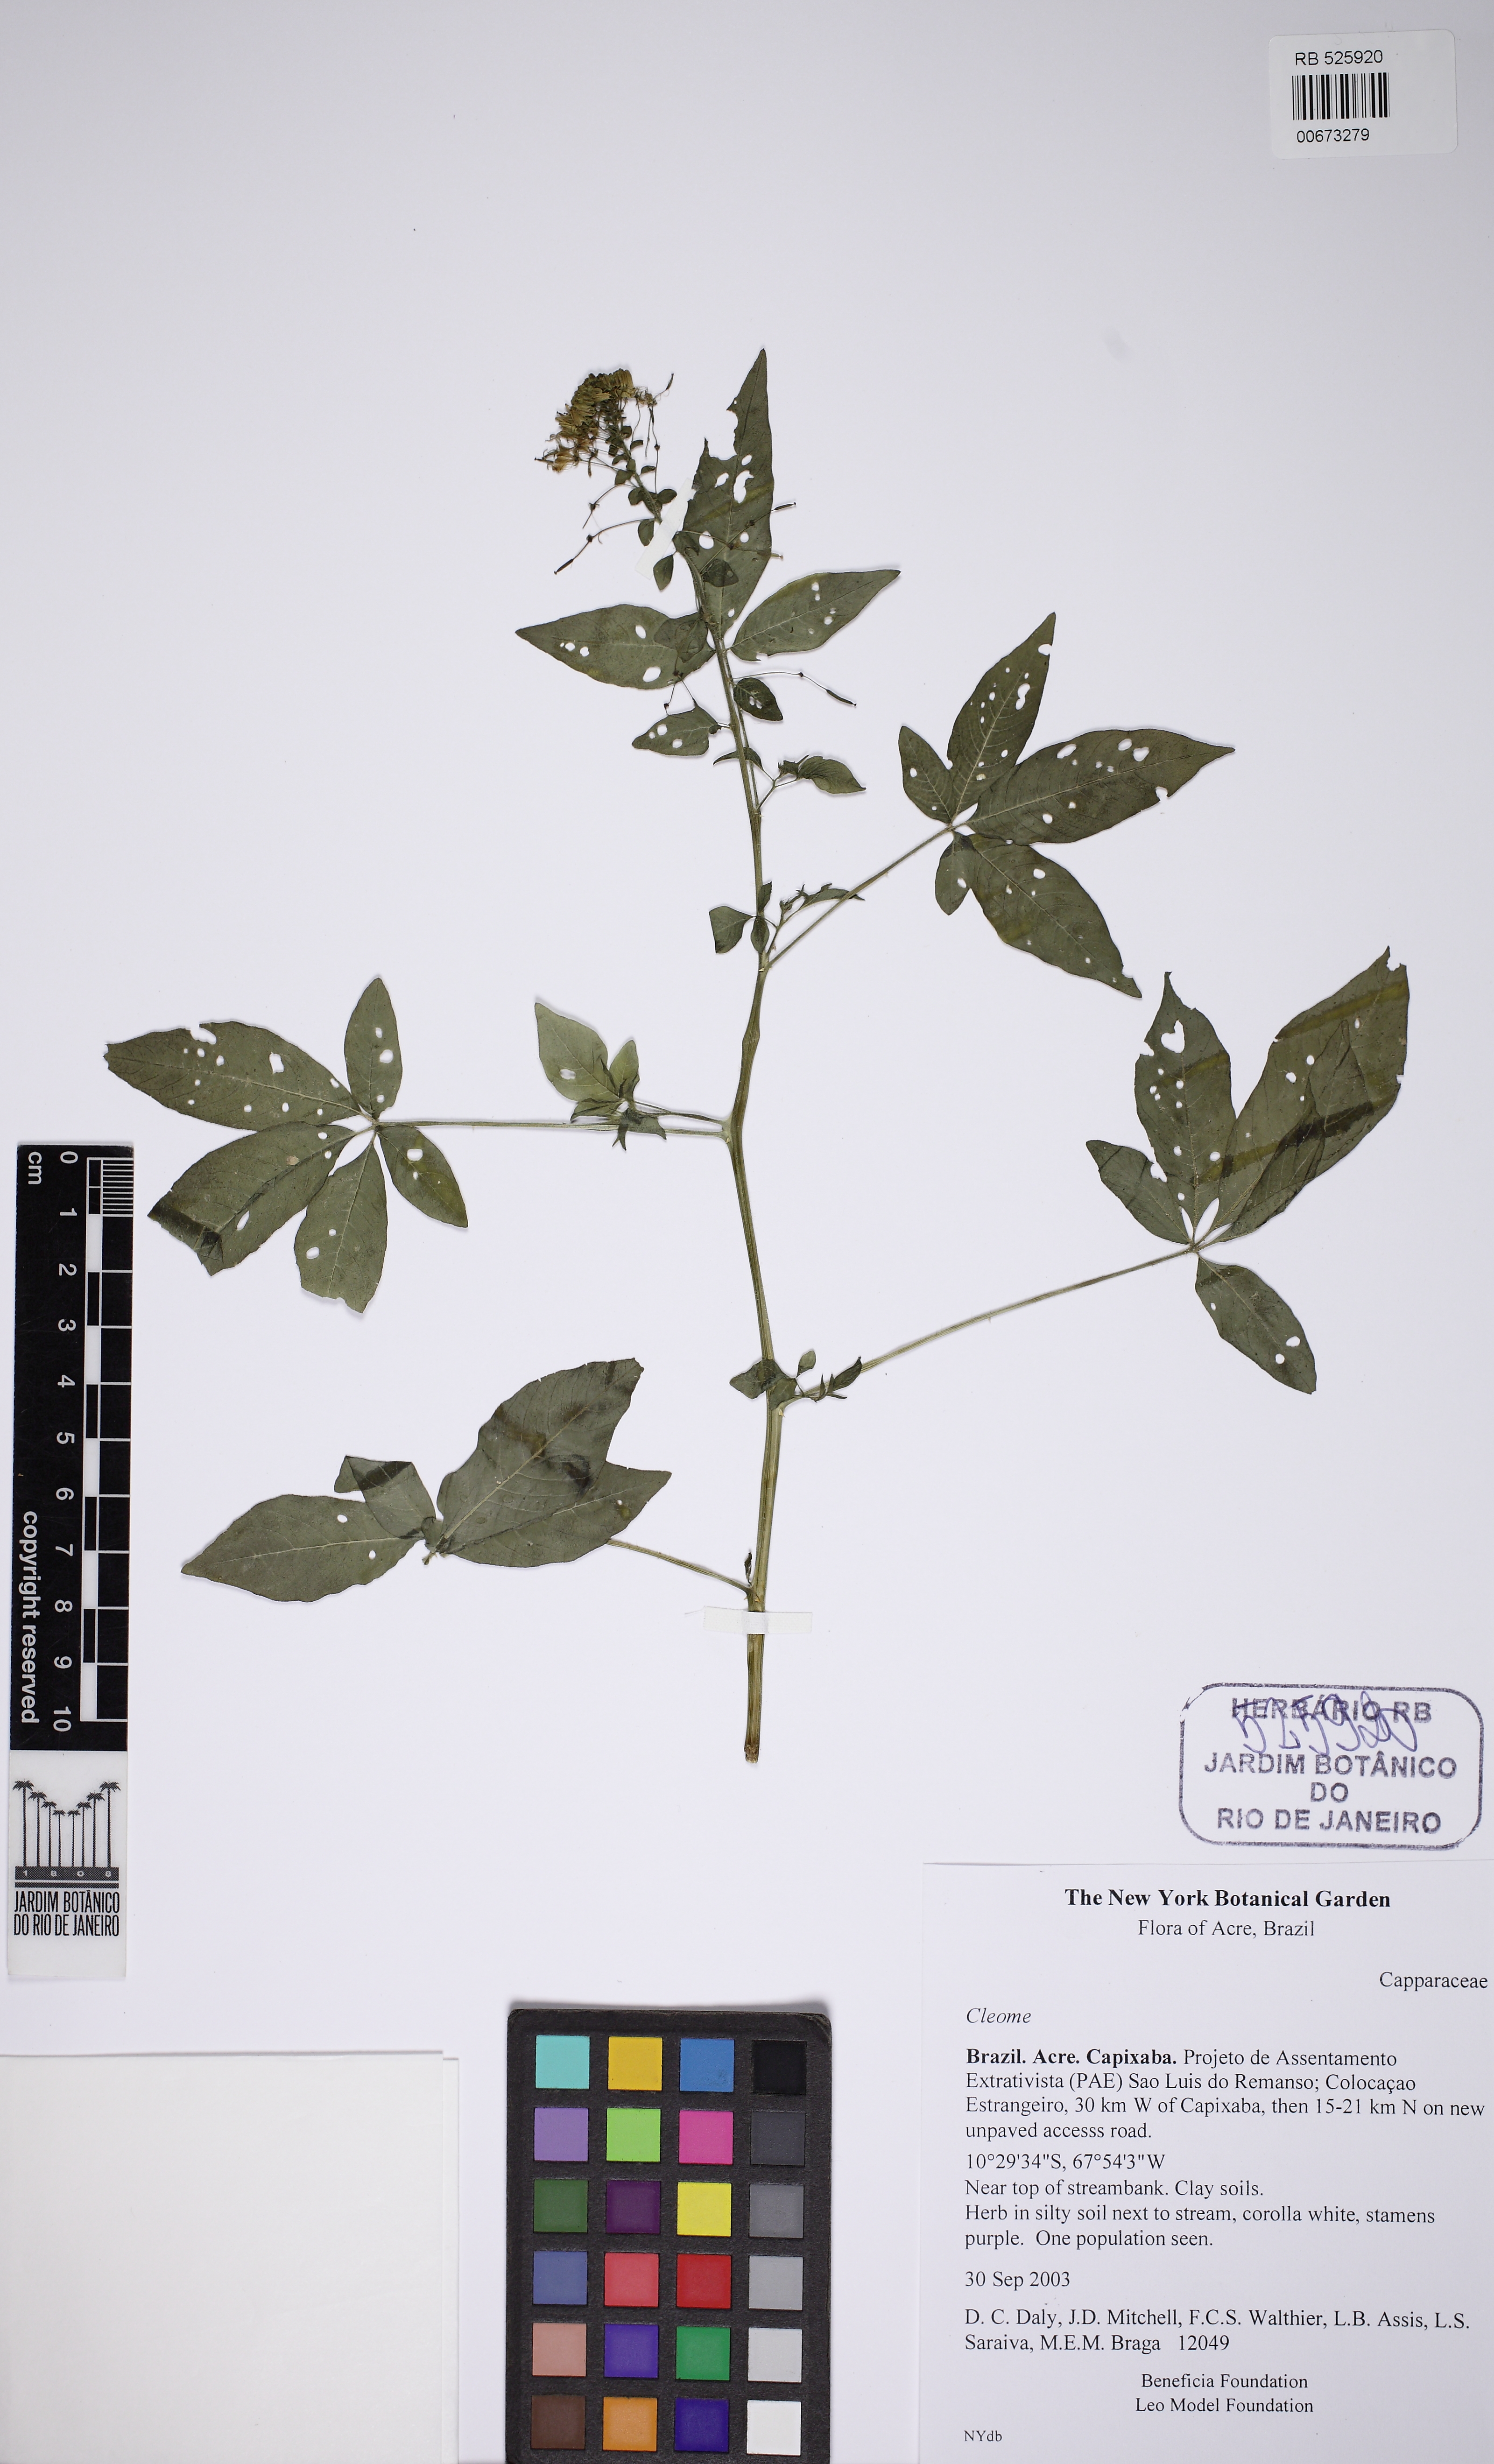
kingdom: Plantae
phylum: Tracheophyta
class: Magnoliopsida
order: Brassicales
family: Cleomaceae
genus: Tarenaya
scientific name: Tarenaya parviflora
